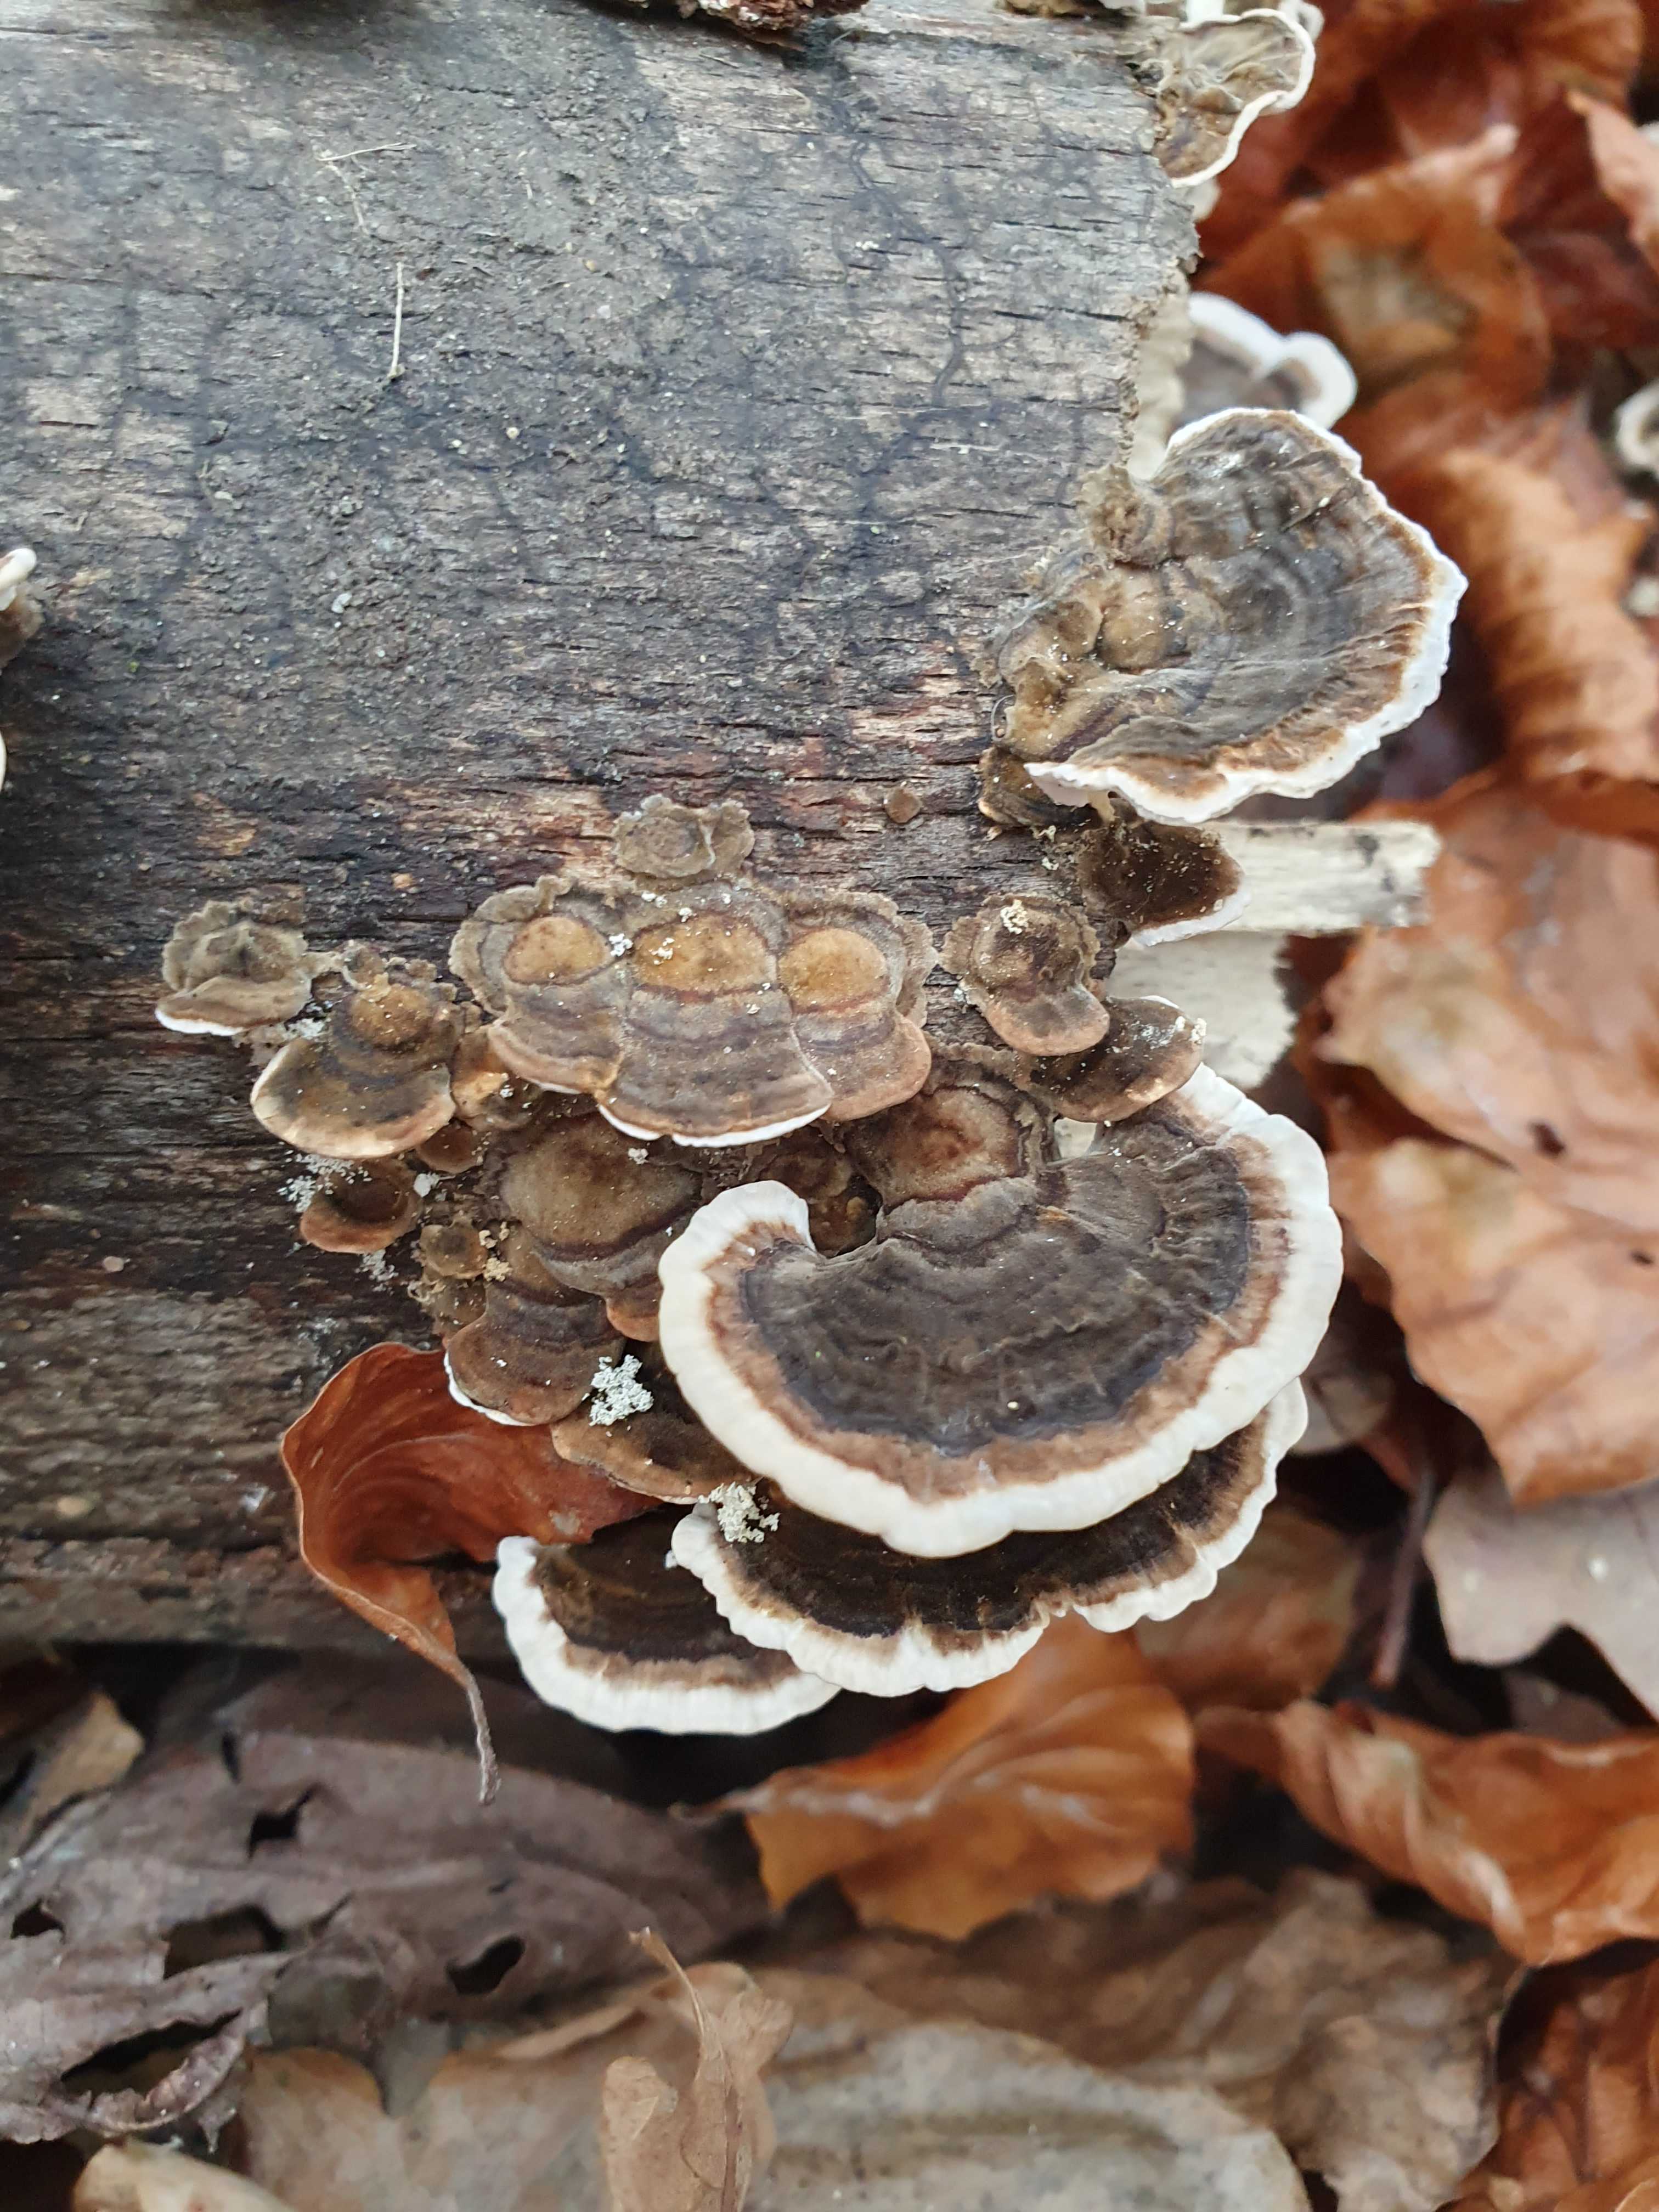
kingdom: Fungi
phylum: Basidiomycota
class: Agaricomycetes
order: Polyporales
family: Polyporaceae
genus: Trametes
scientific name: Trametes versicolor
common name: broget læderporesvamp
